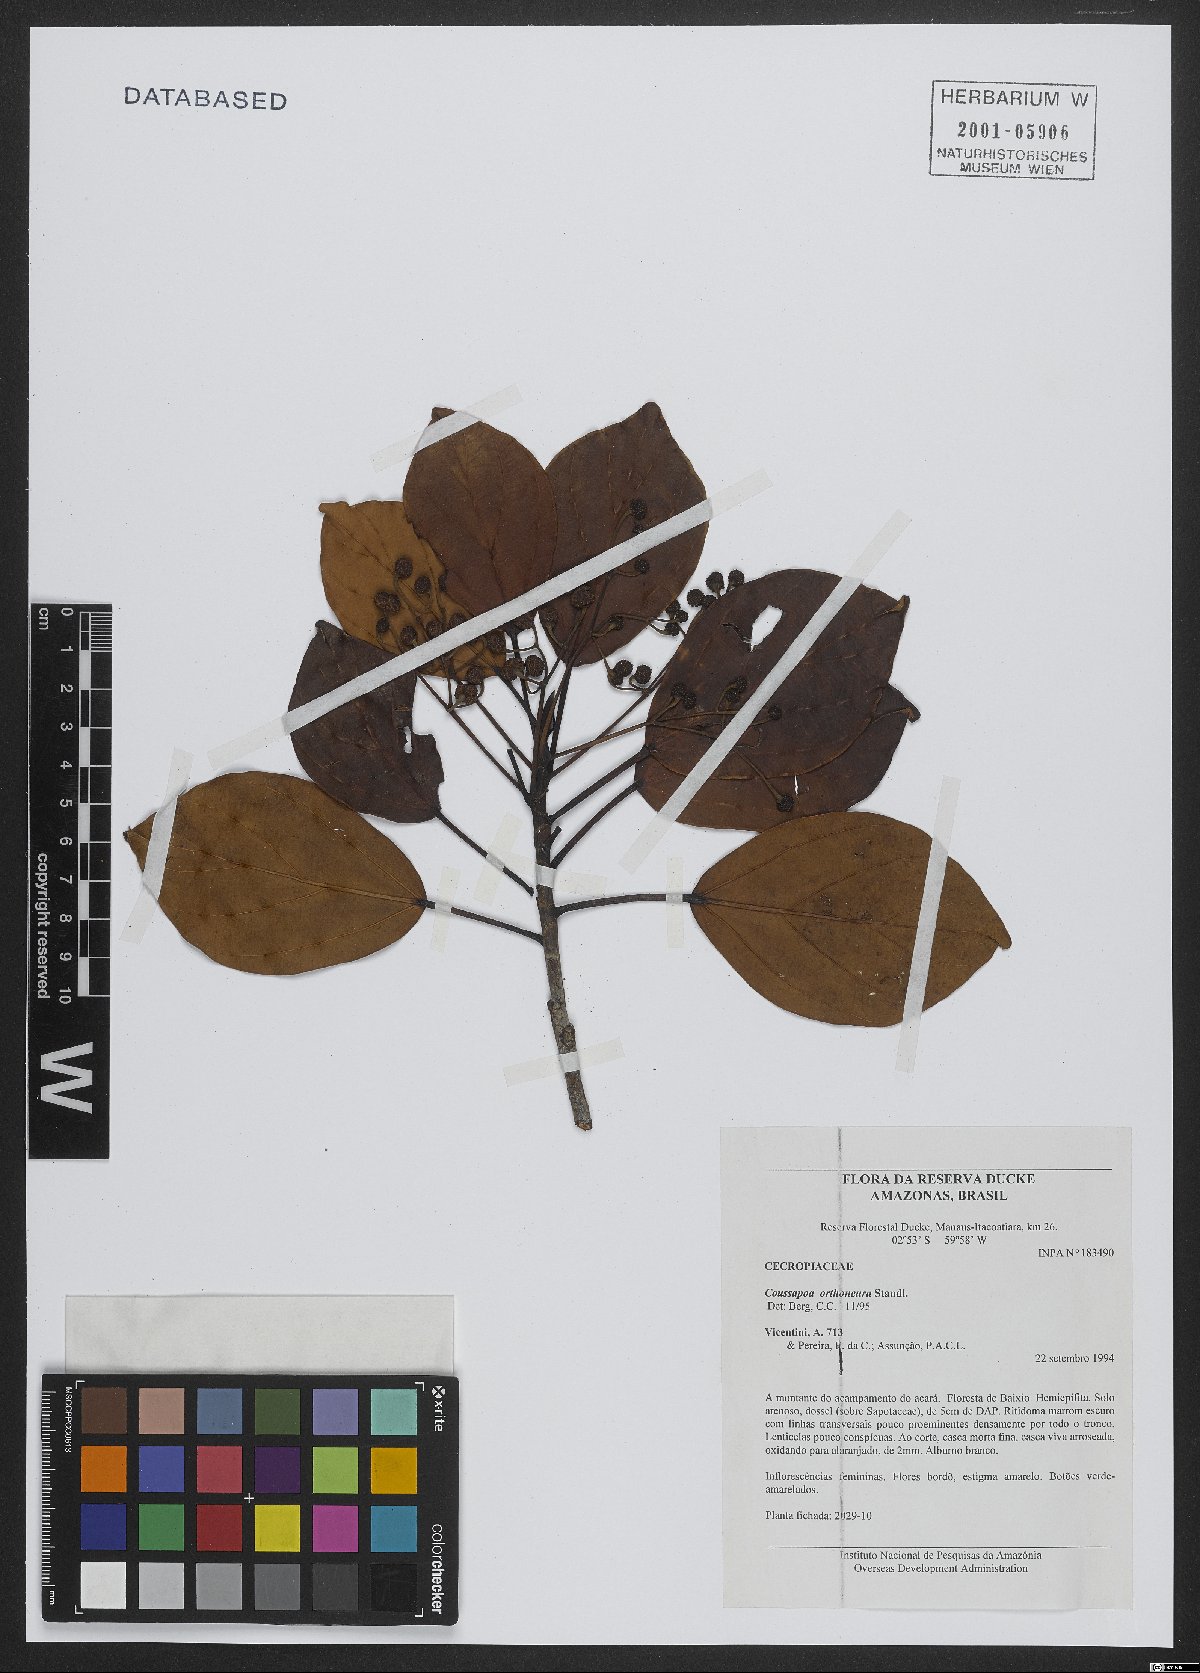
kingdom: Plantae
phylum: Tracheophyta
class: Magnoliopsida
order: Rosales
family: Urticaceae
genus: Coussapoa
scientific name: Coussapoa orthoneura
